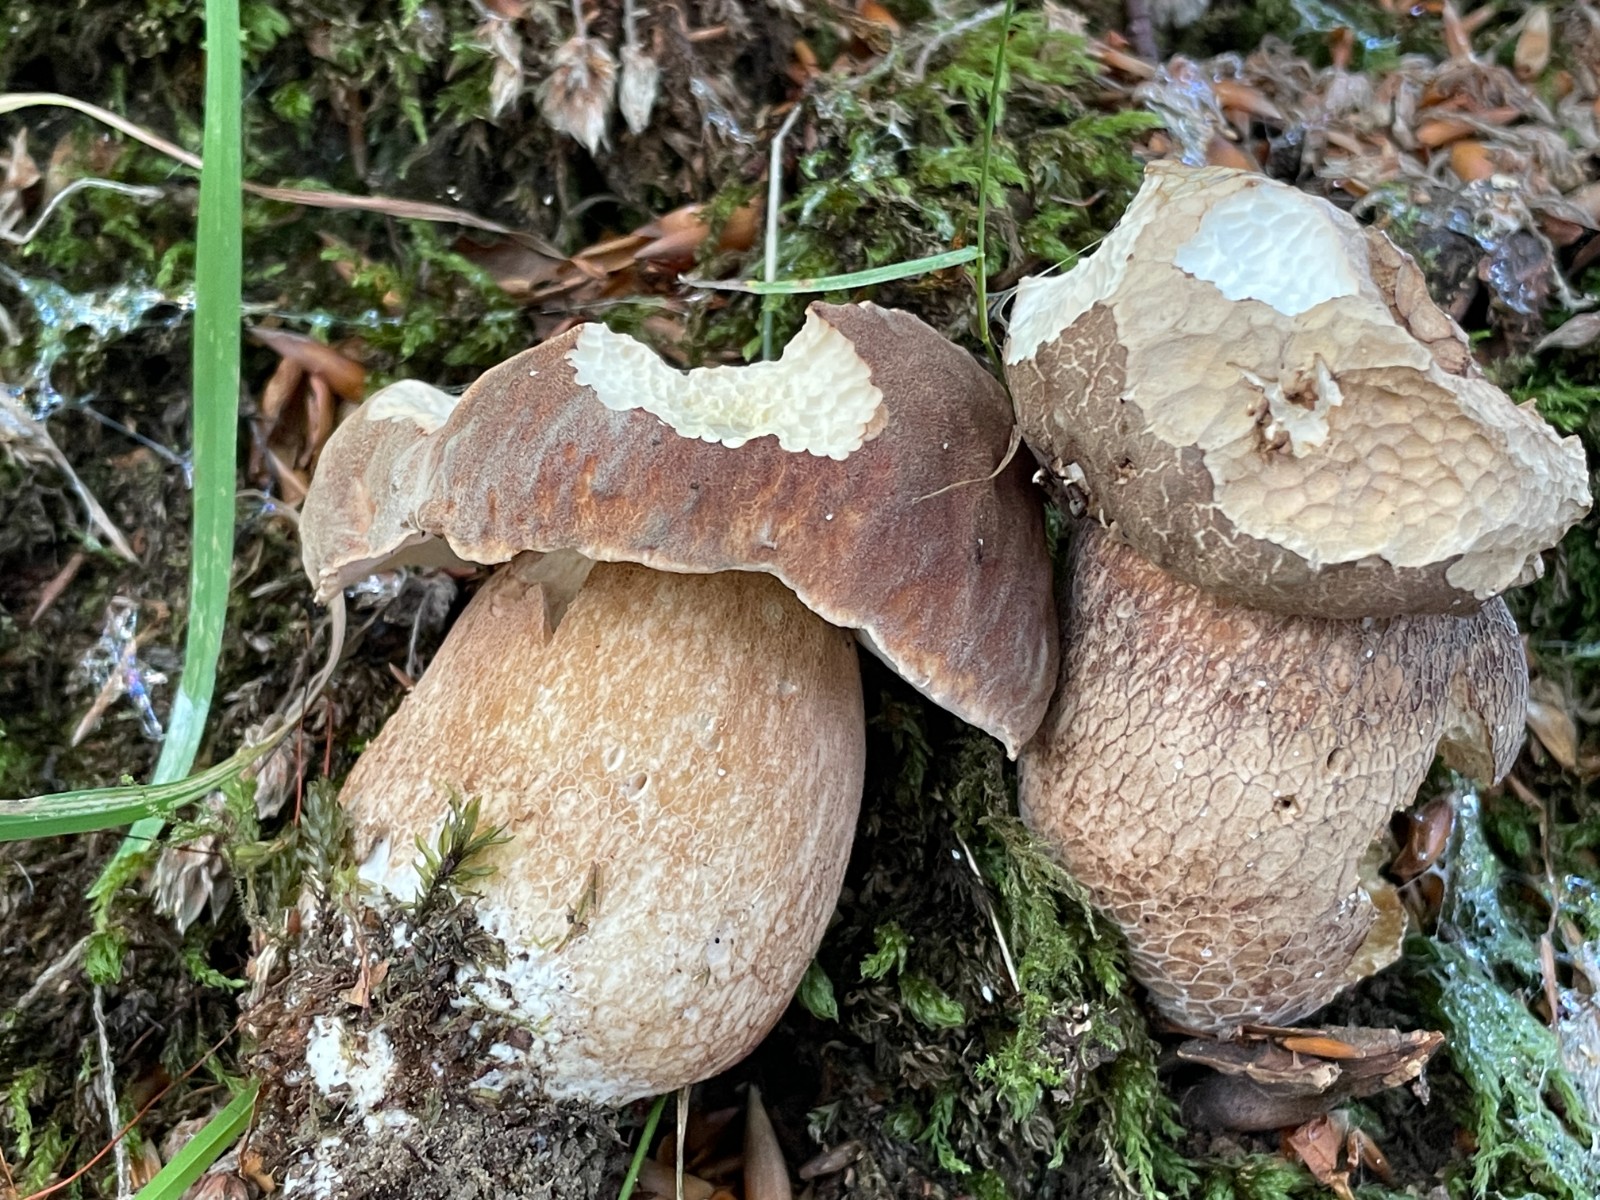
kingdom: Fungi
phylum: Basidiomycota
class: Agaricomycetes
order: Boletales
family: Boletaceae
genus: Boletus
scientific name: Boletus reticulatus
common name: sommer-rørhat
